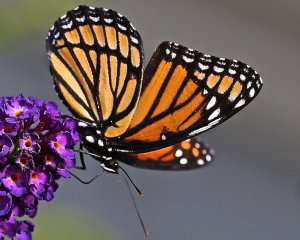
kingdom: Animalia
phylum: Arthropoda
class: Insecta
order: Lepidoptera
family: Nymphalidae
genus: Limenitis
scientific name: Limenitis archippus
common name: Viceroy
